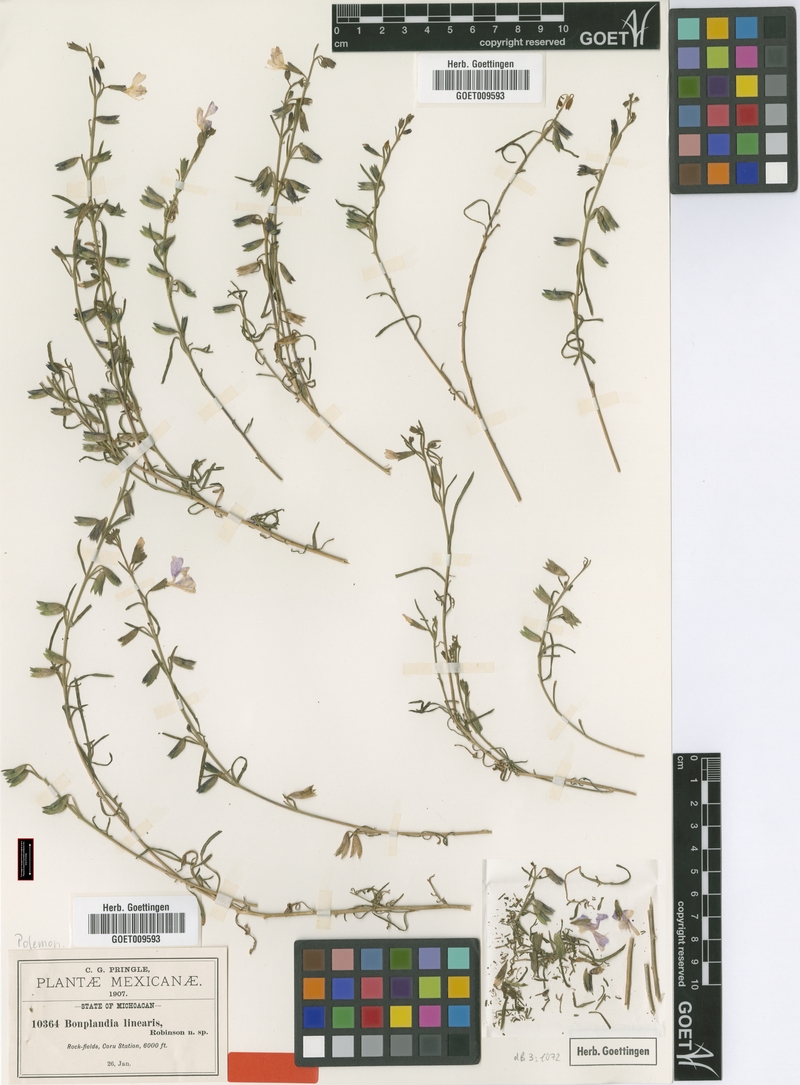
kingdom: Plantae
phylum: Tracheophyta
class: Magnoliopsida
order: Ericales
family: Polemoniaceae
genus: Bonplandia
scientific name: Bonplandia linearis
